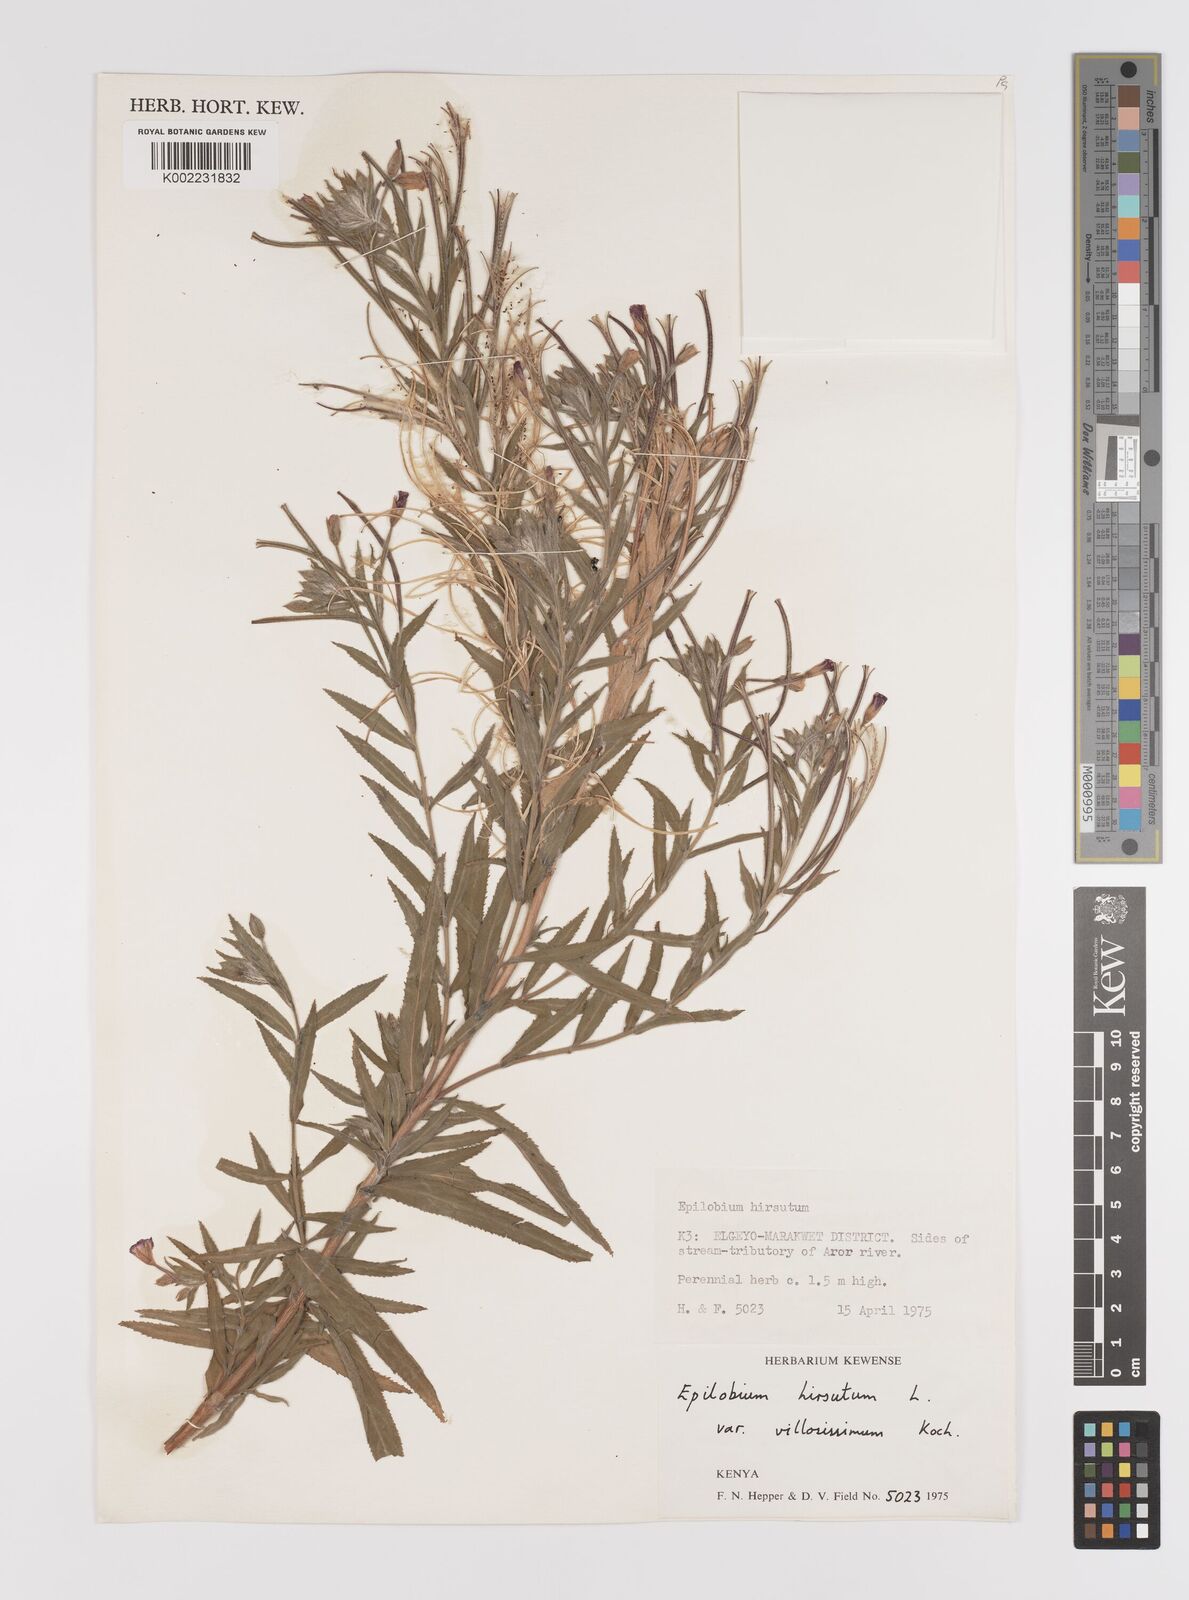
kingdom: Plantae
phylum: Tracheophyta
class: Magnoliopsida
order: Myrtales
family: Onagraceae
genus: Epilobium
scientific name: Epilobium hirsutum
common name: Great willowherb
